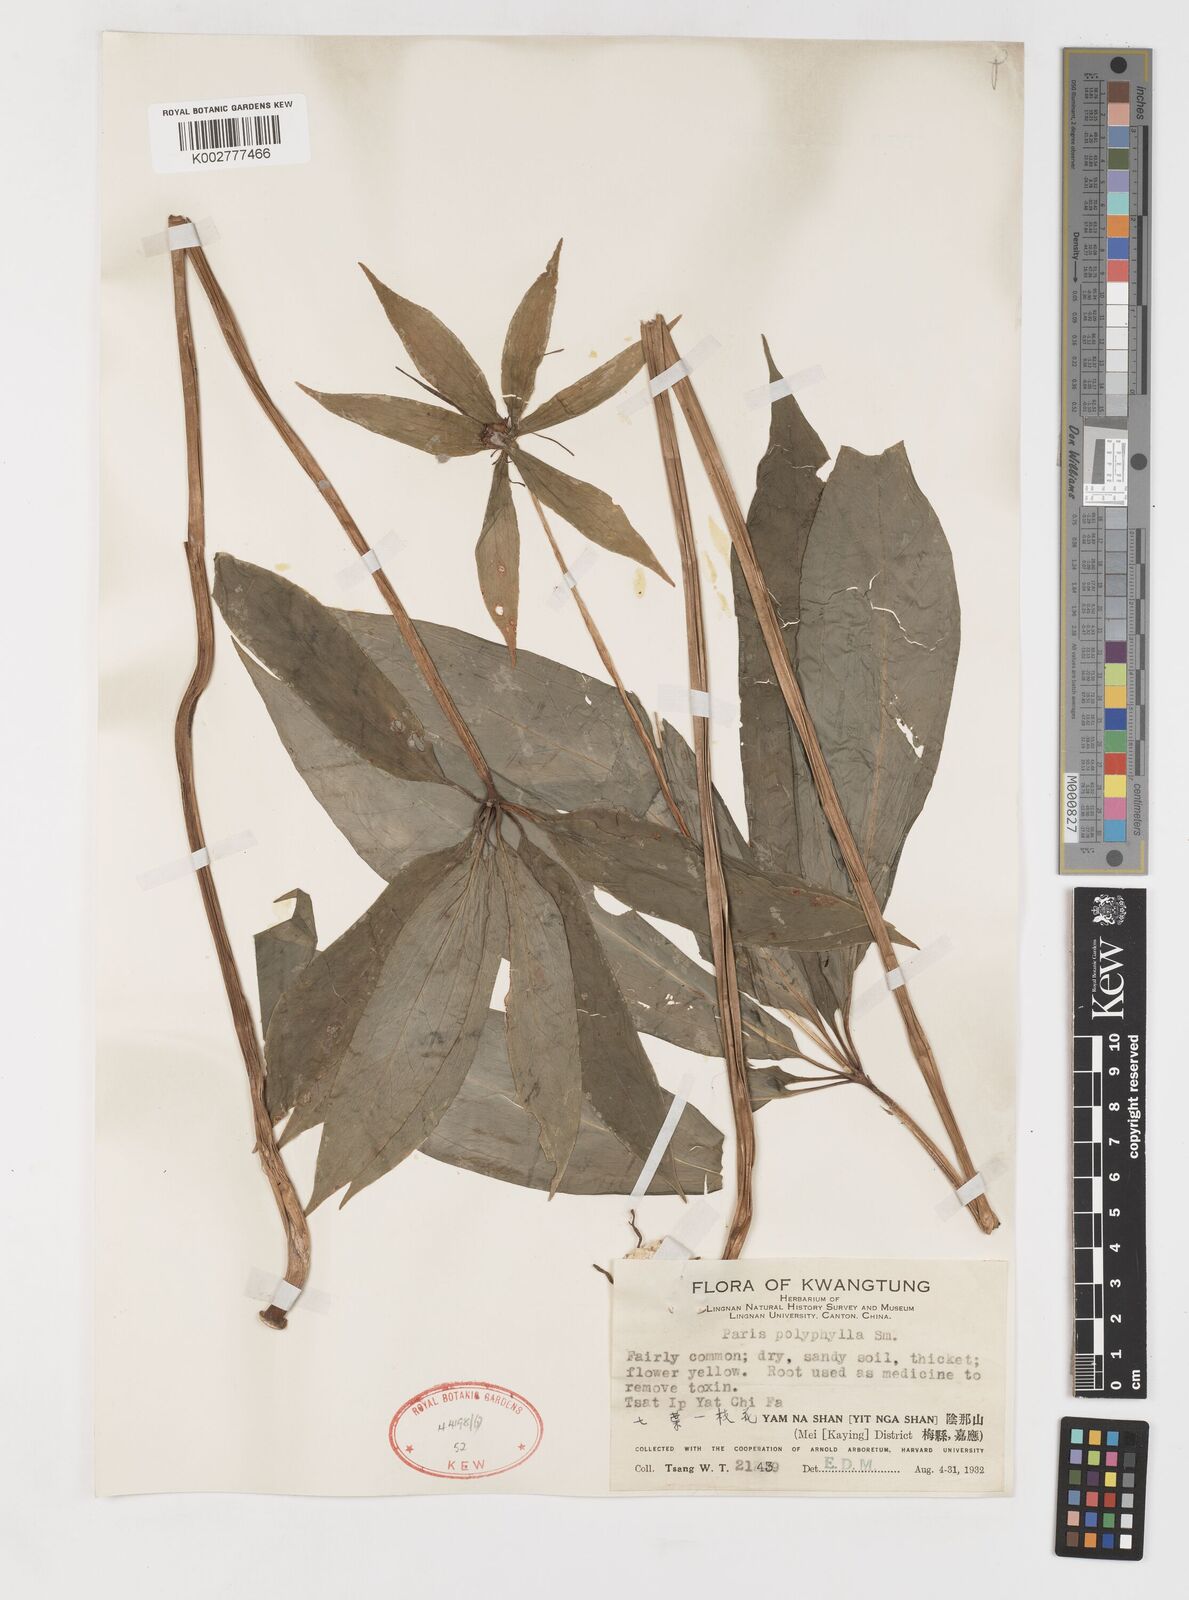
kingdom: Plantae
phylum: Tracheophyta
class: Liliopsida
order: Liliales
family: Melanthiaceae
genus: Paris
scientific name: Paris polyphylla
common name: Love apple
